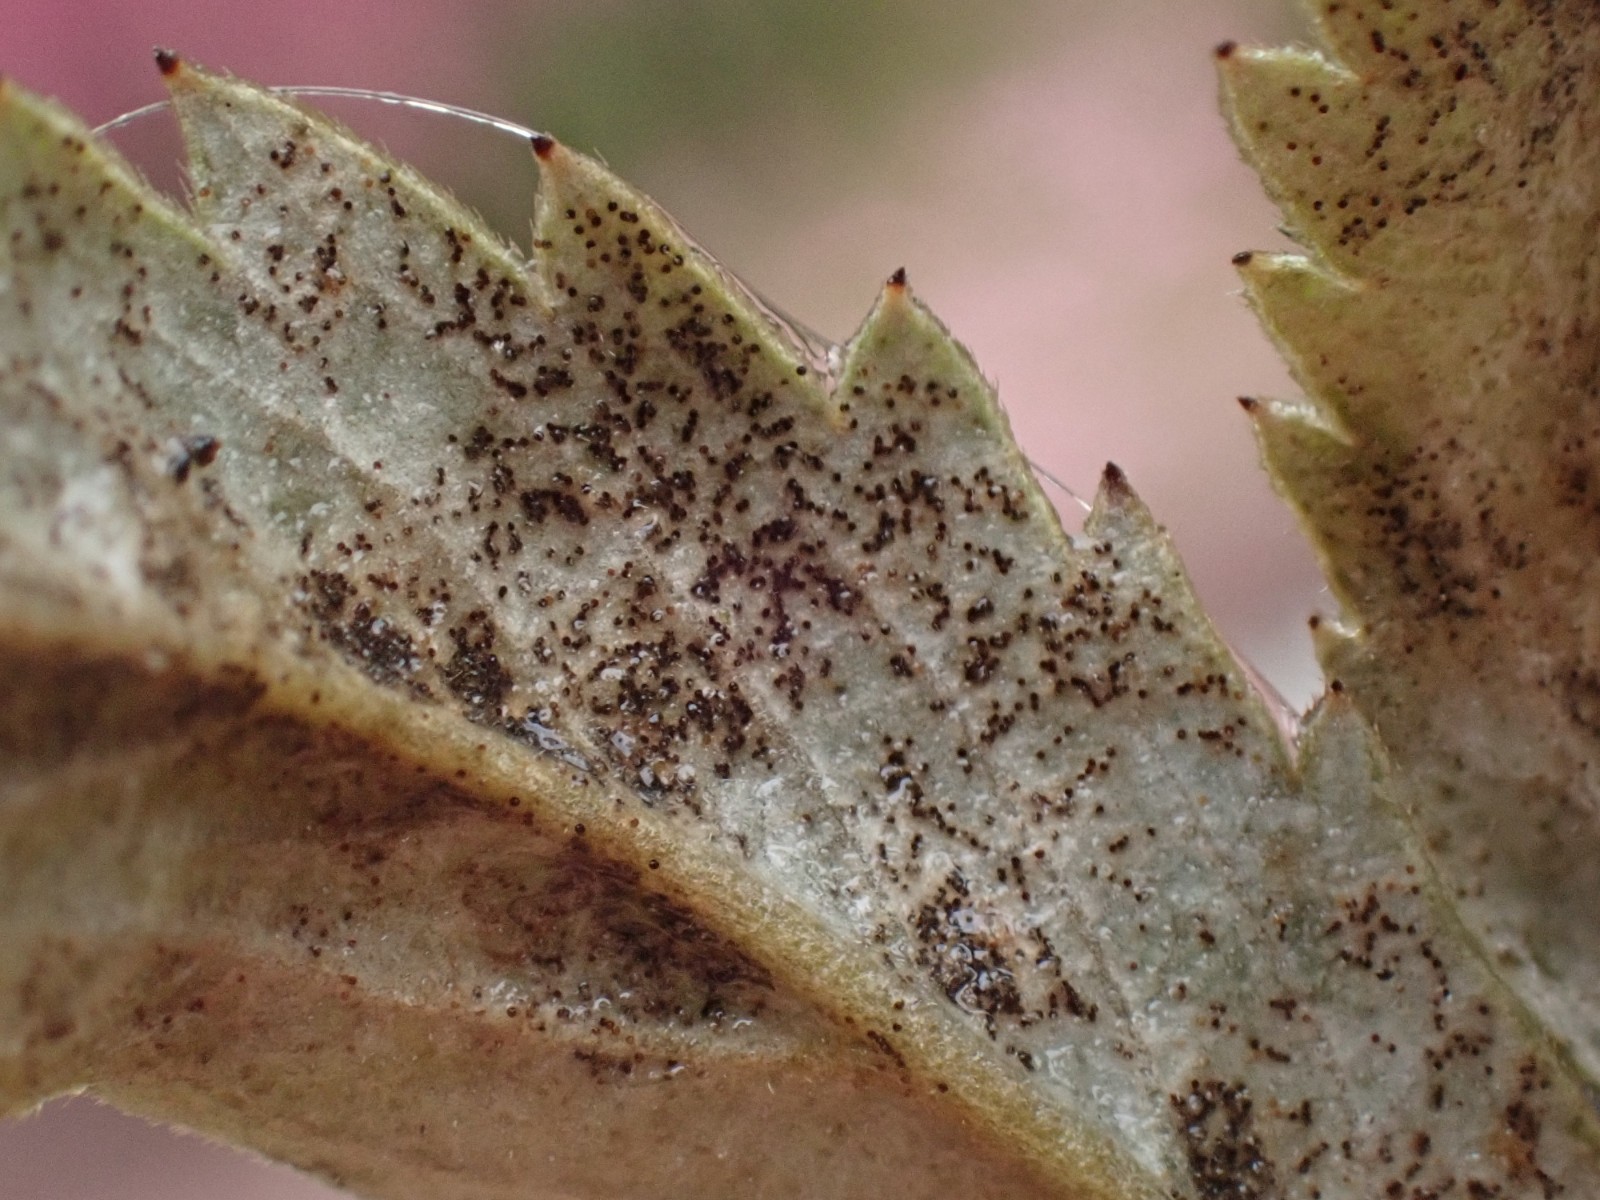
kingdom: Fungi
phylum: Ascomycota
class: Leotiomycetes
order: Helotiales
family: Erysiphaceae
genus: Podosphaera
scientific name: Podosphaera aphanis
